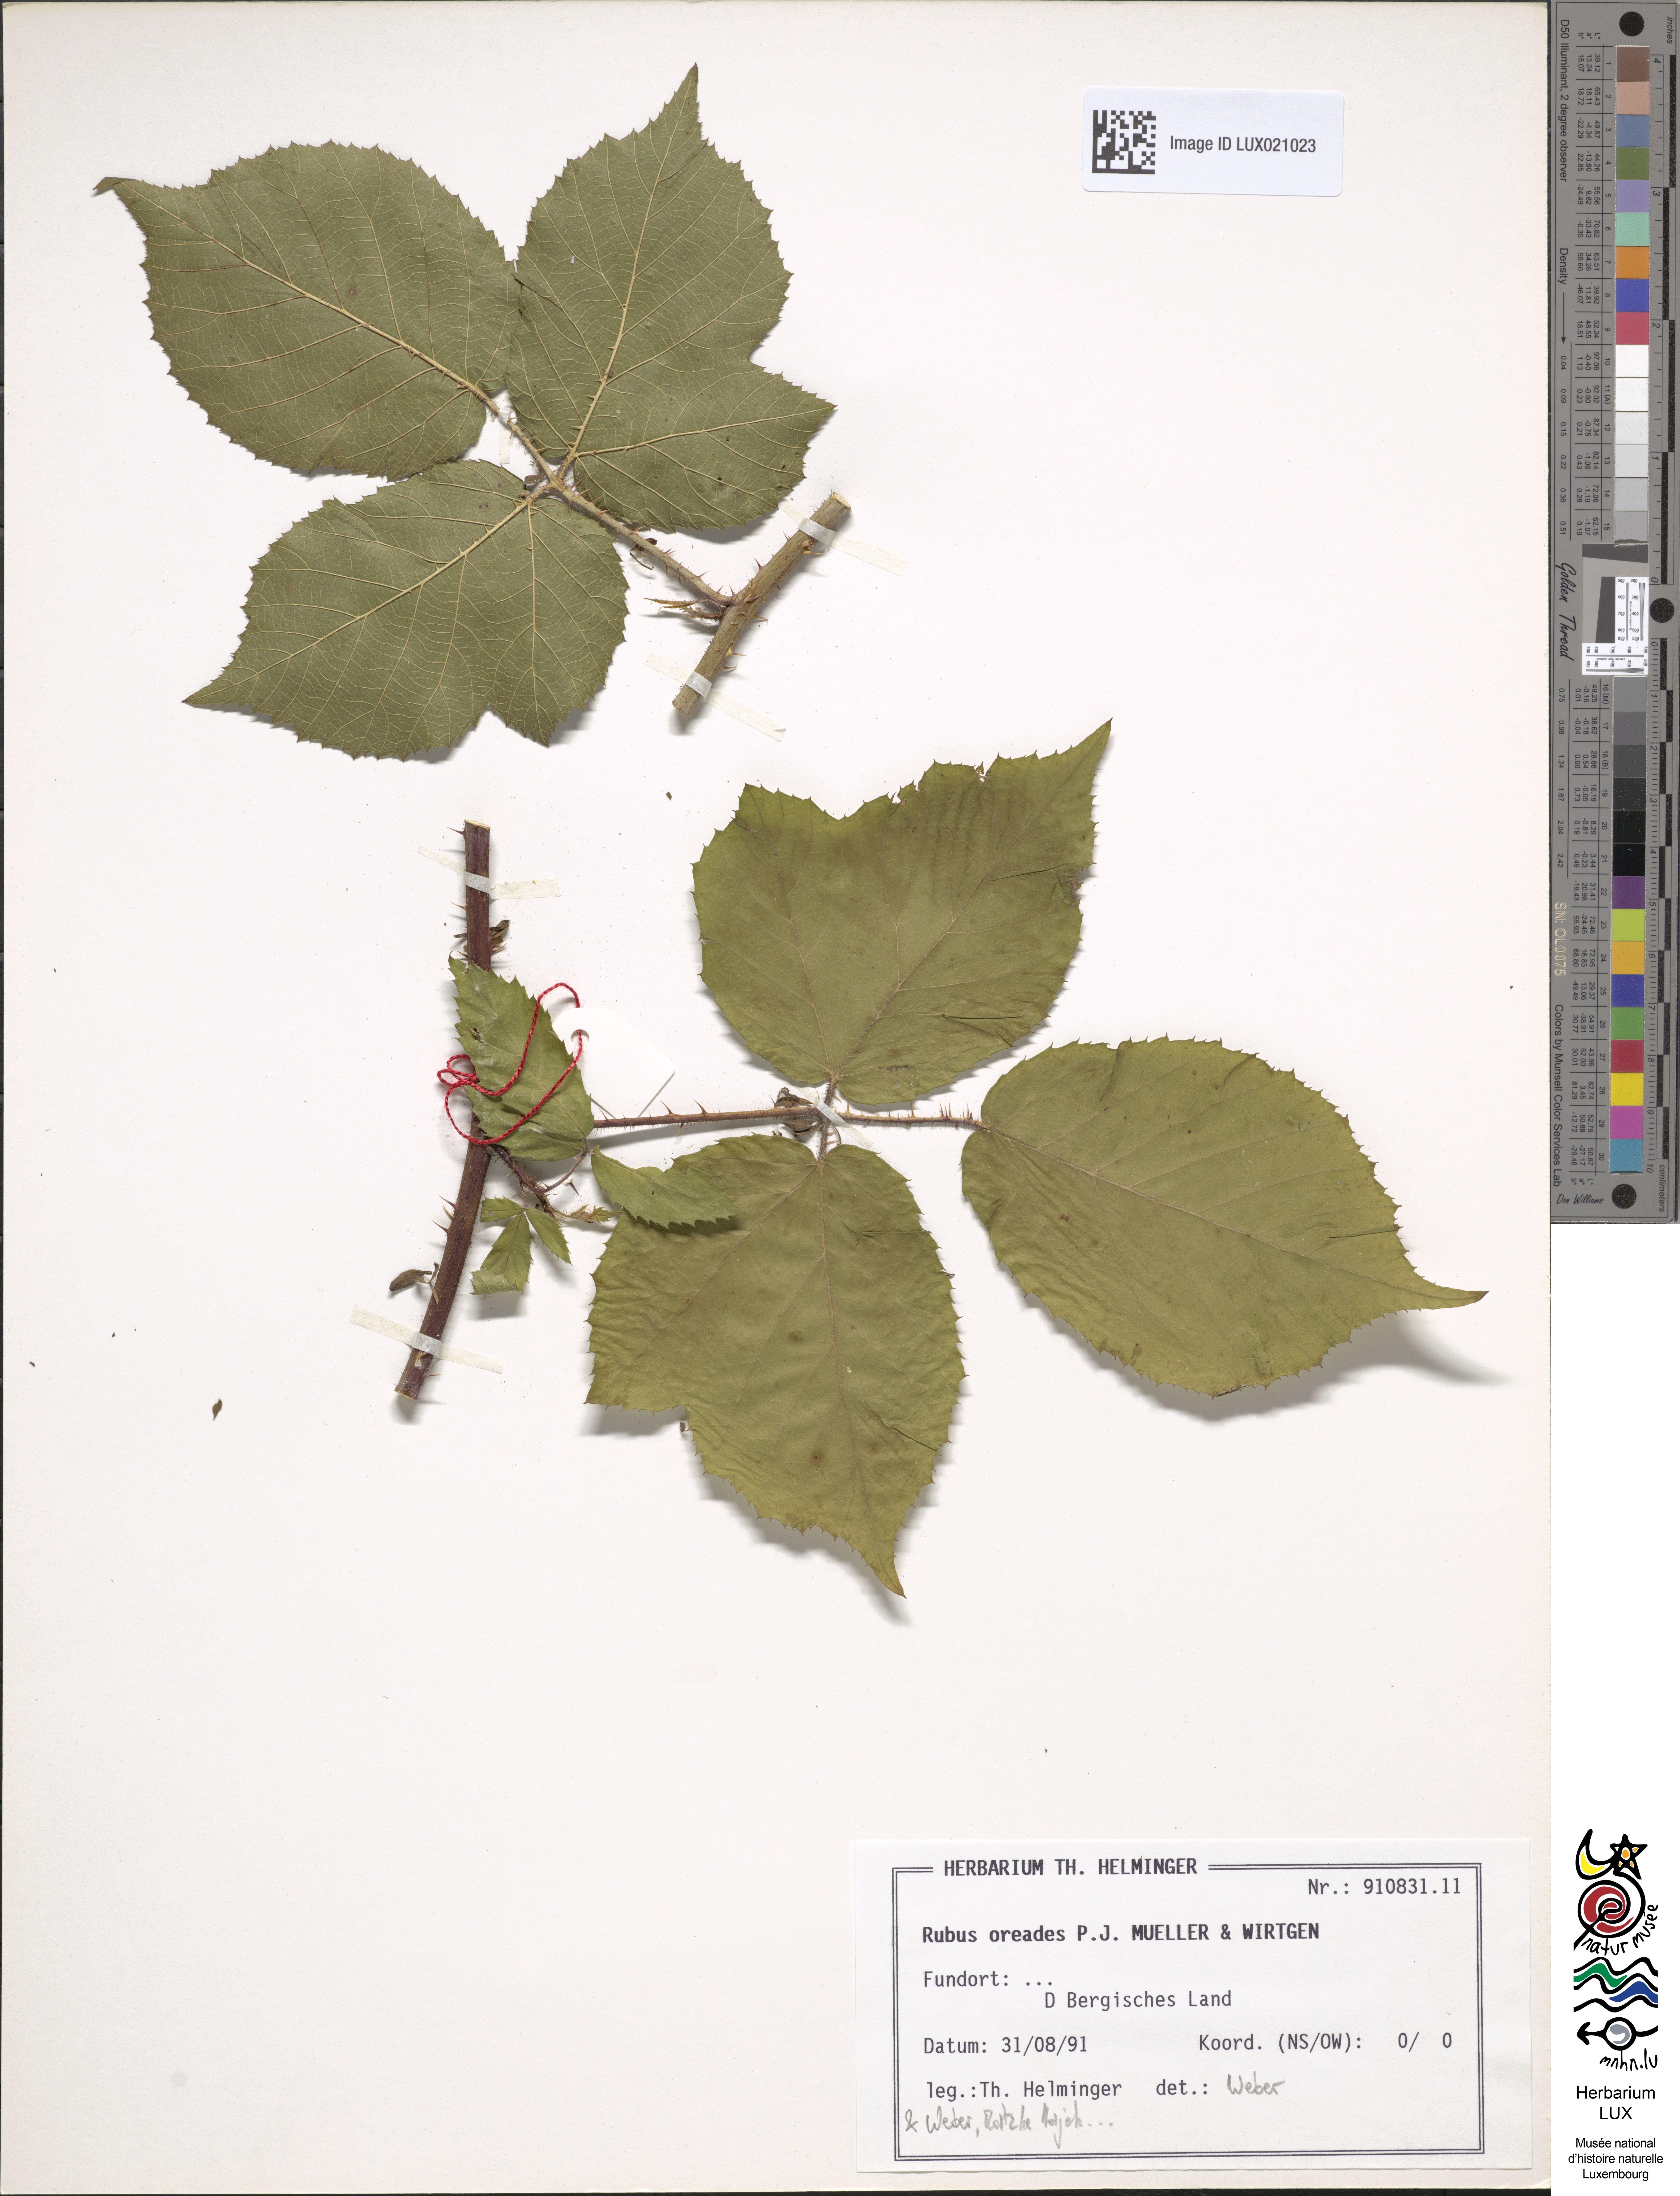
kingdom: Plantae
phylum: Tracheophyta
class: Magnoliopsida
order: Rosales
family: Rosaceae
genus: Rubus
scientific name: Rubus oreades
